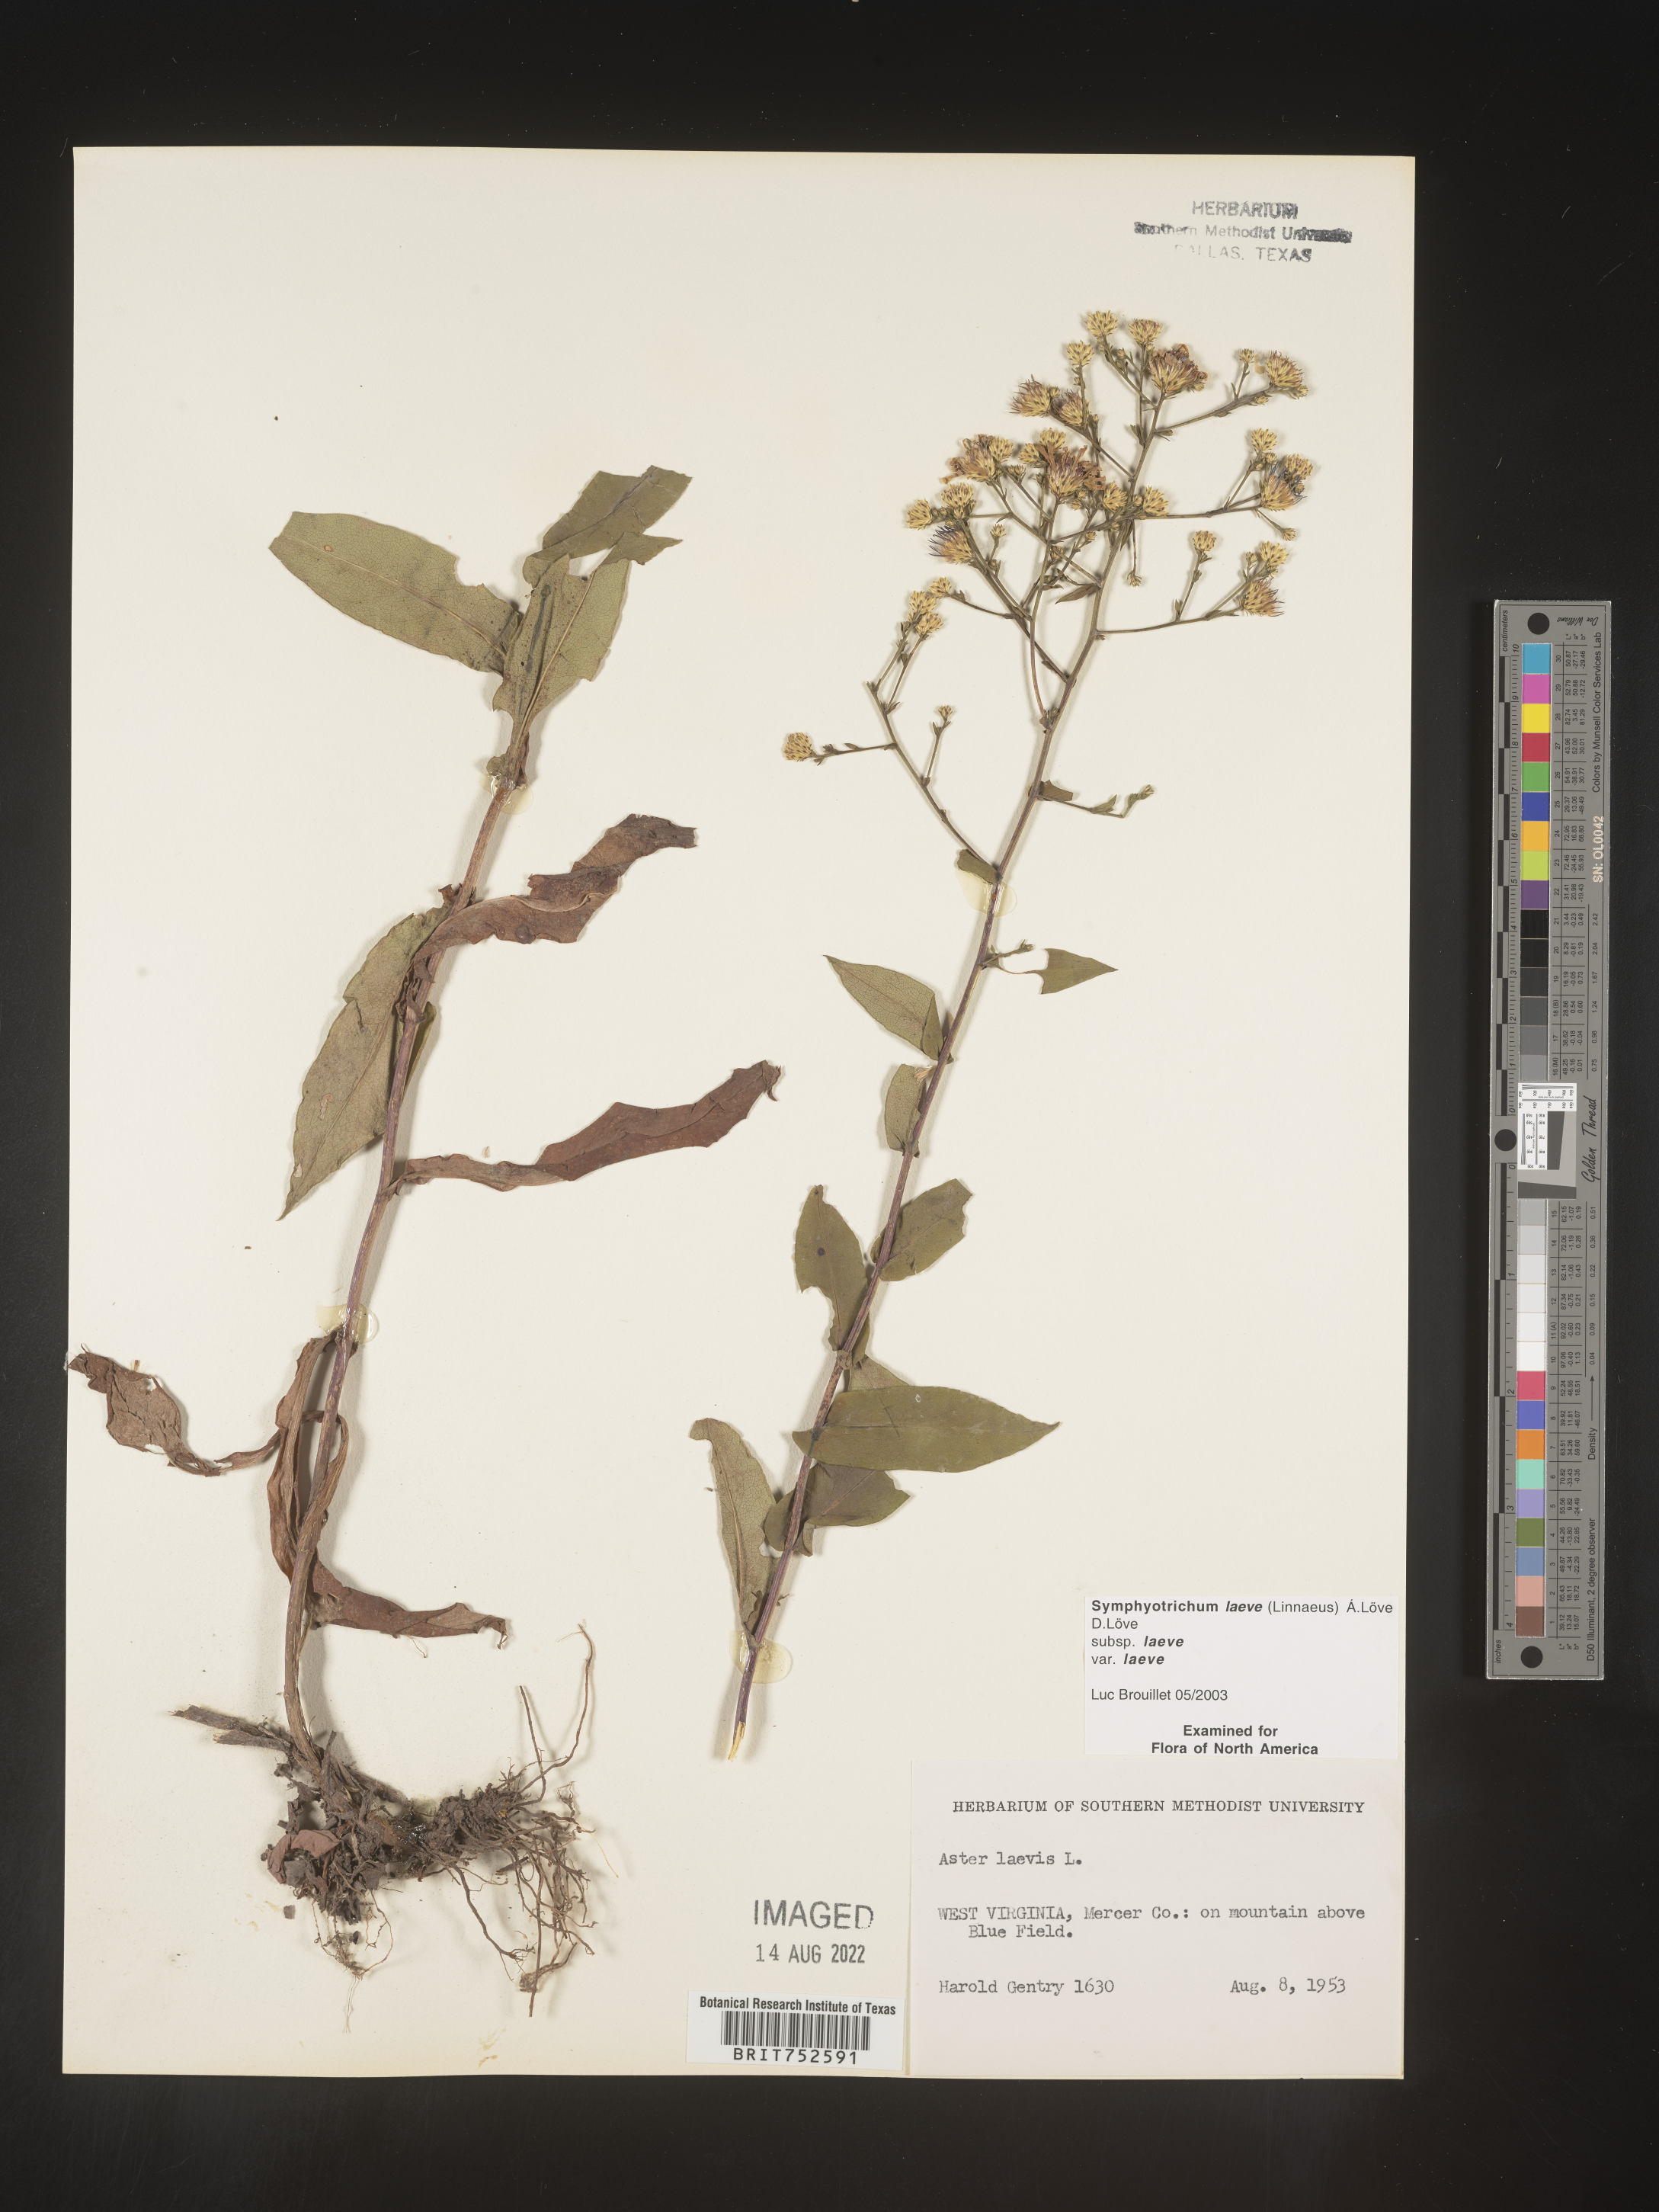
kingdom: Plantae
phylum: Tracheophyta
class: Magnoliopsida
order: Asterales
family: Asteraceae
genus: Symphyotrichum
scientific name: Symphyotrichum laeve
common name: Glaucous aster
